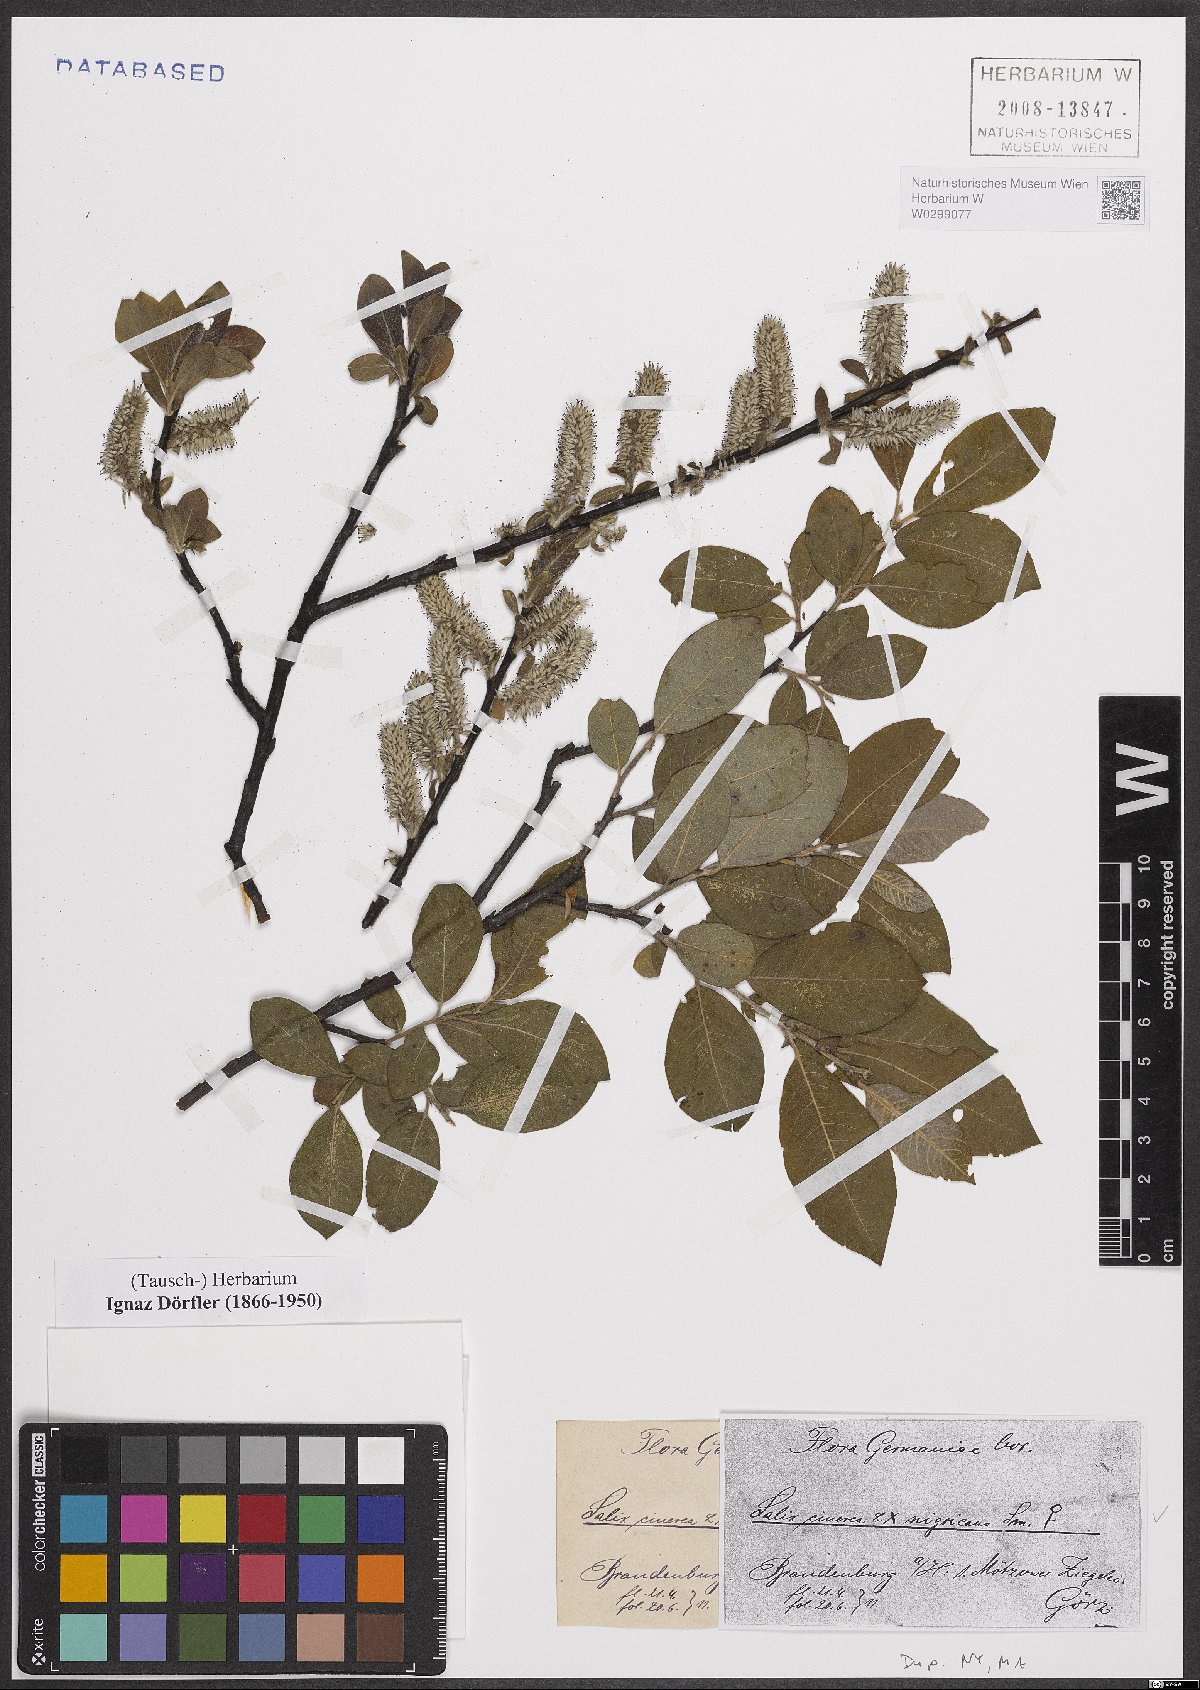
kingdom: Plantae
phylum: Tracheophyta
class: Magnoliopsida
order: Malpighiales
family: Salicaceae
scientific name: Salicaceae
